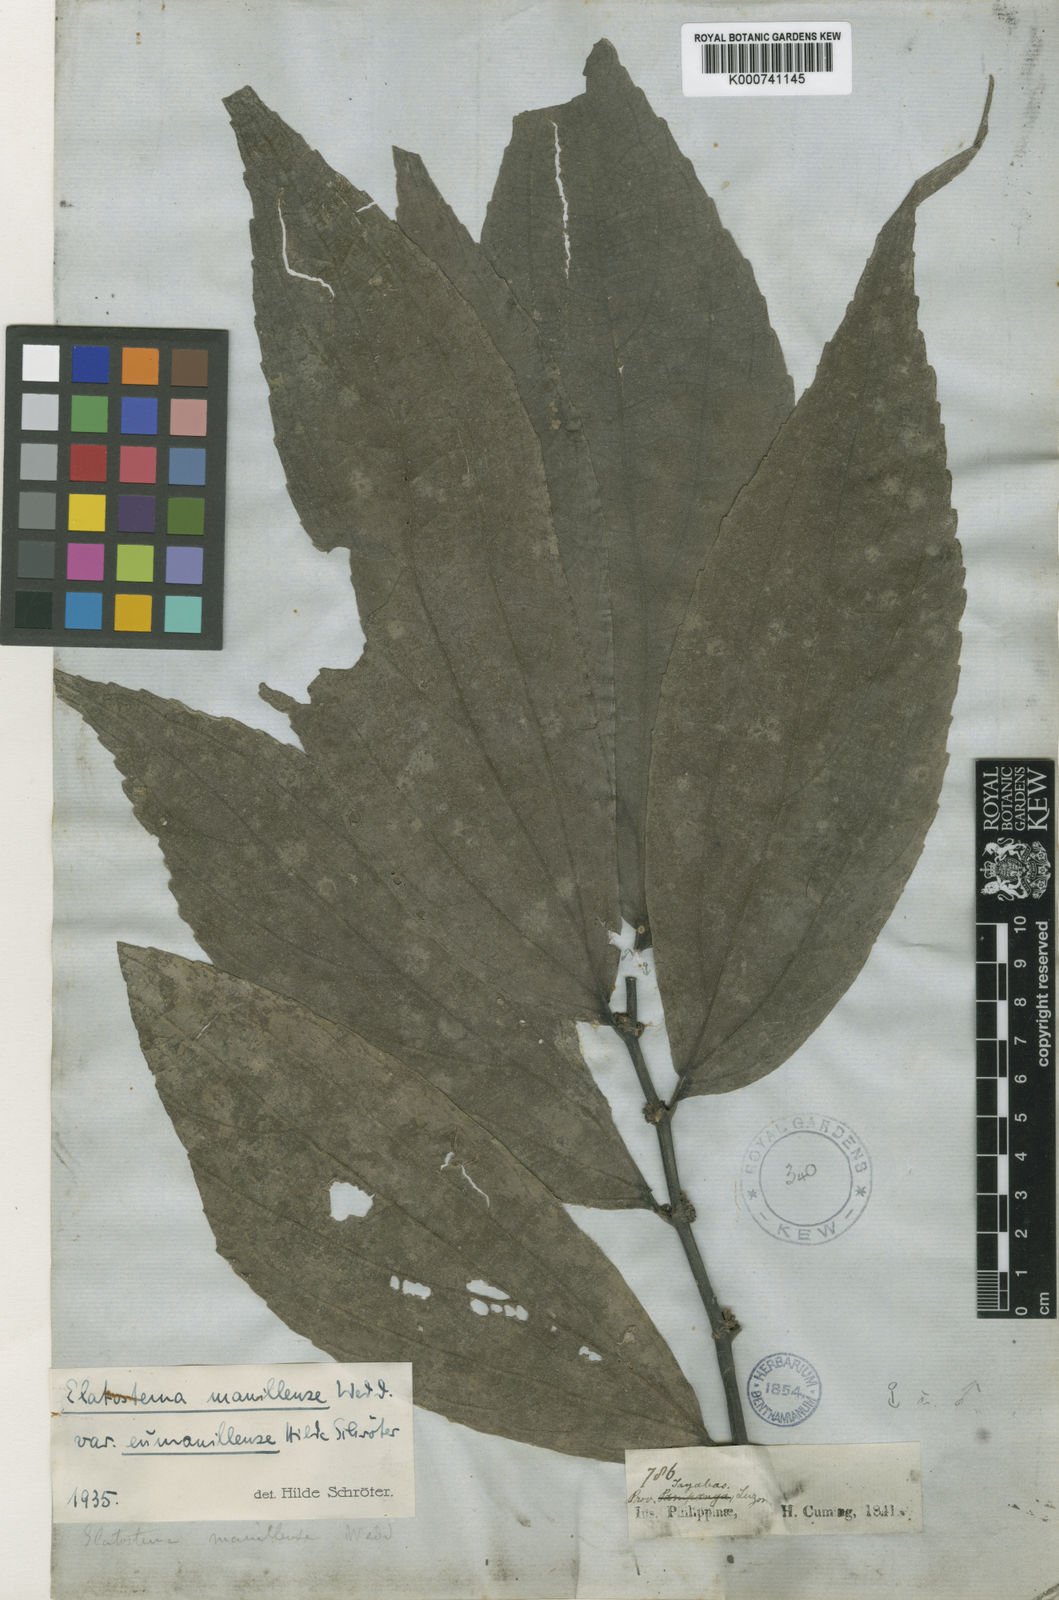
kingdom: Plantae
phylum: Tracheophyta
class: Magnoliopsida
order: Rosales
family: Urticaceae
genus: Elatostematoides
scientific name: Elatostematoides manillense
